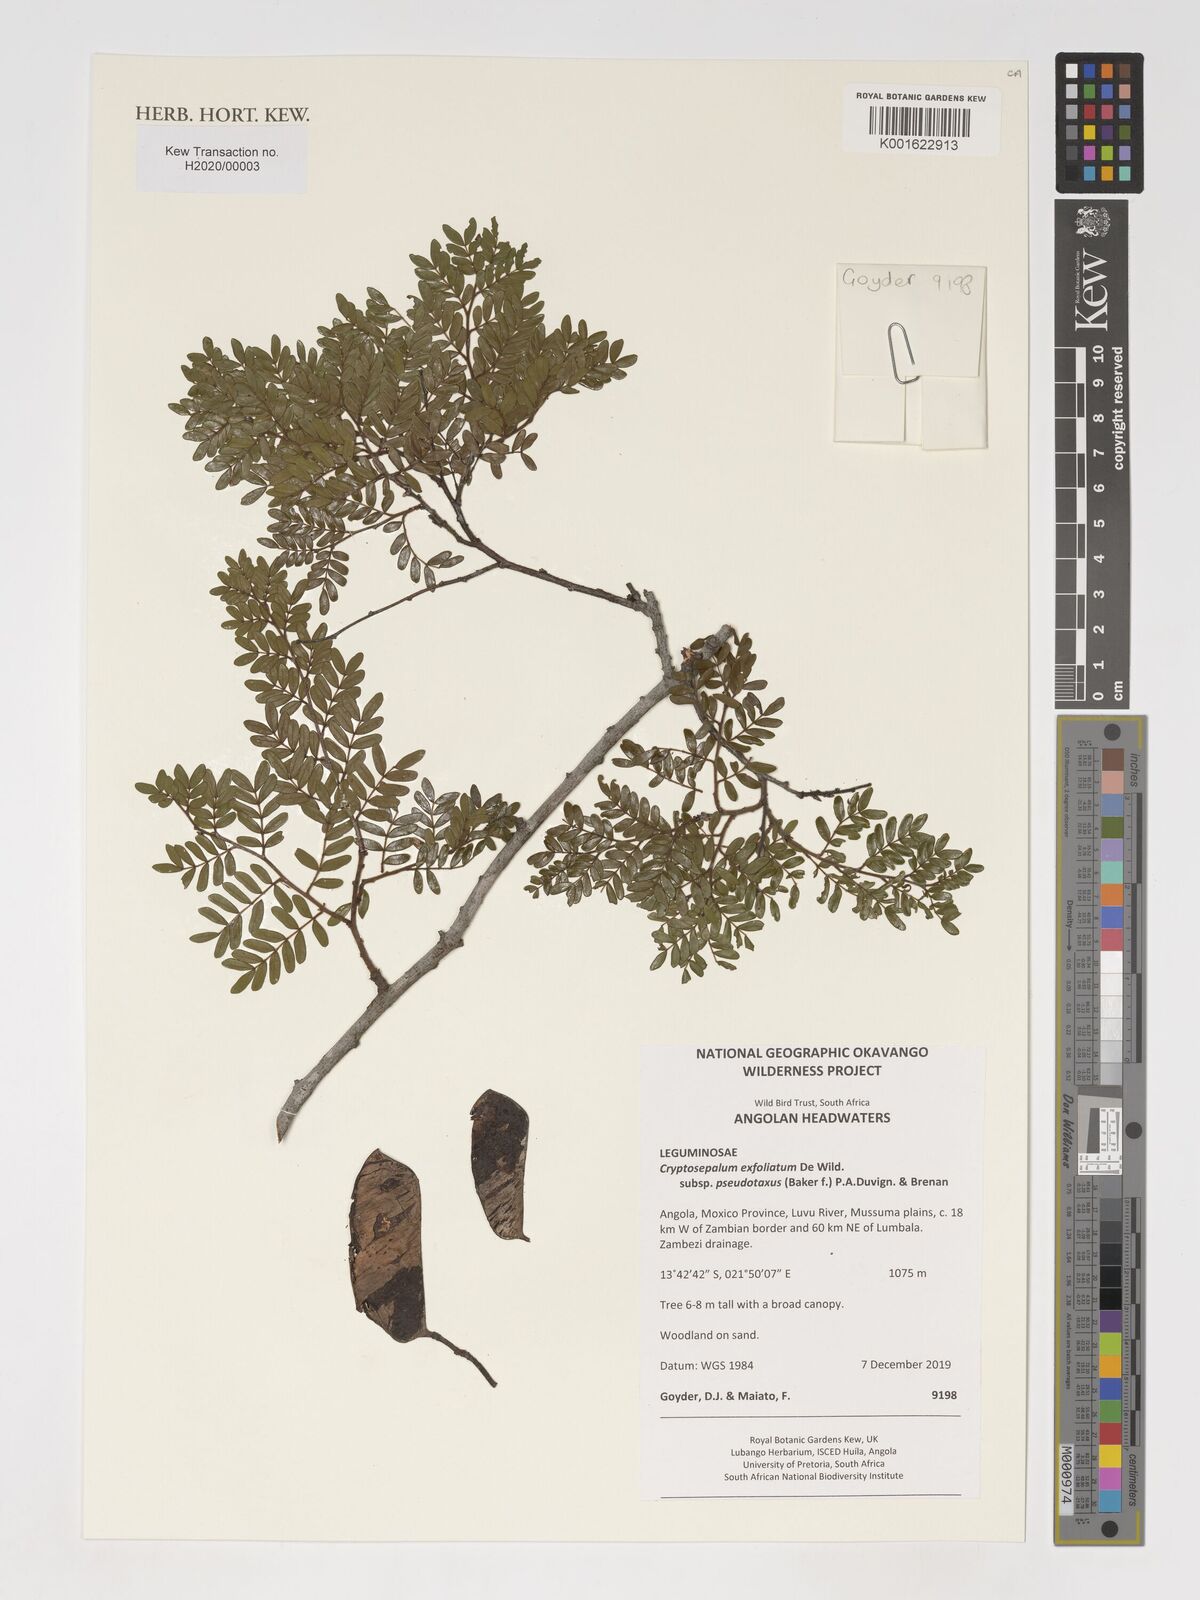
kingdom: Plantae
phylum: Tracheophyta
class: Magnoliopsida
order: Fabales
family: Fabaceae
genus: Cryptosepalum
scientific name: Cryptosepalum exfoliatum
